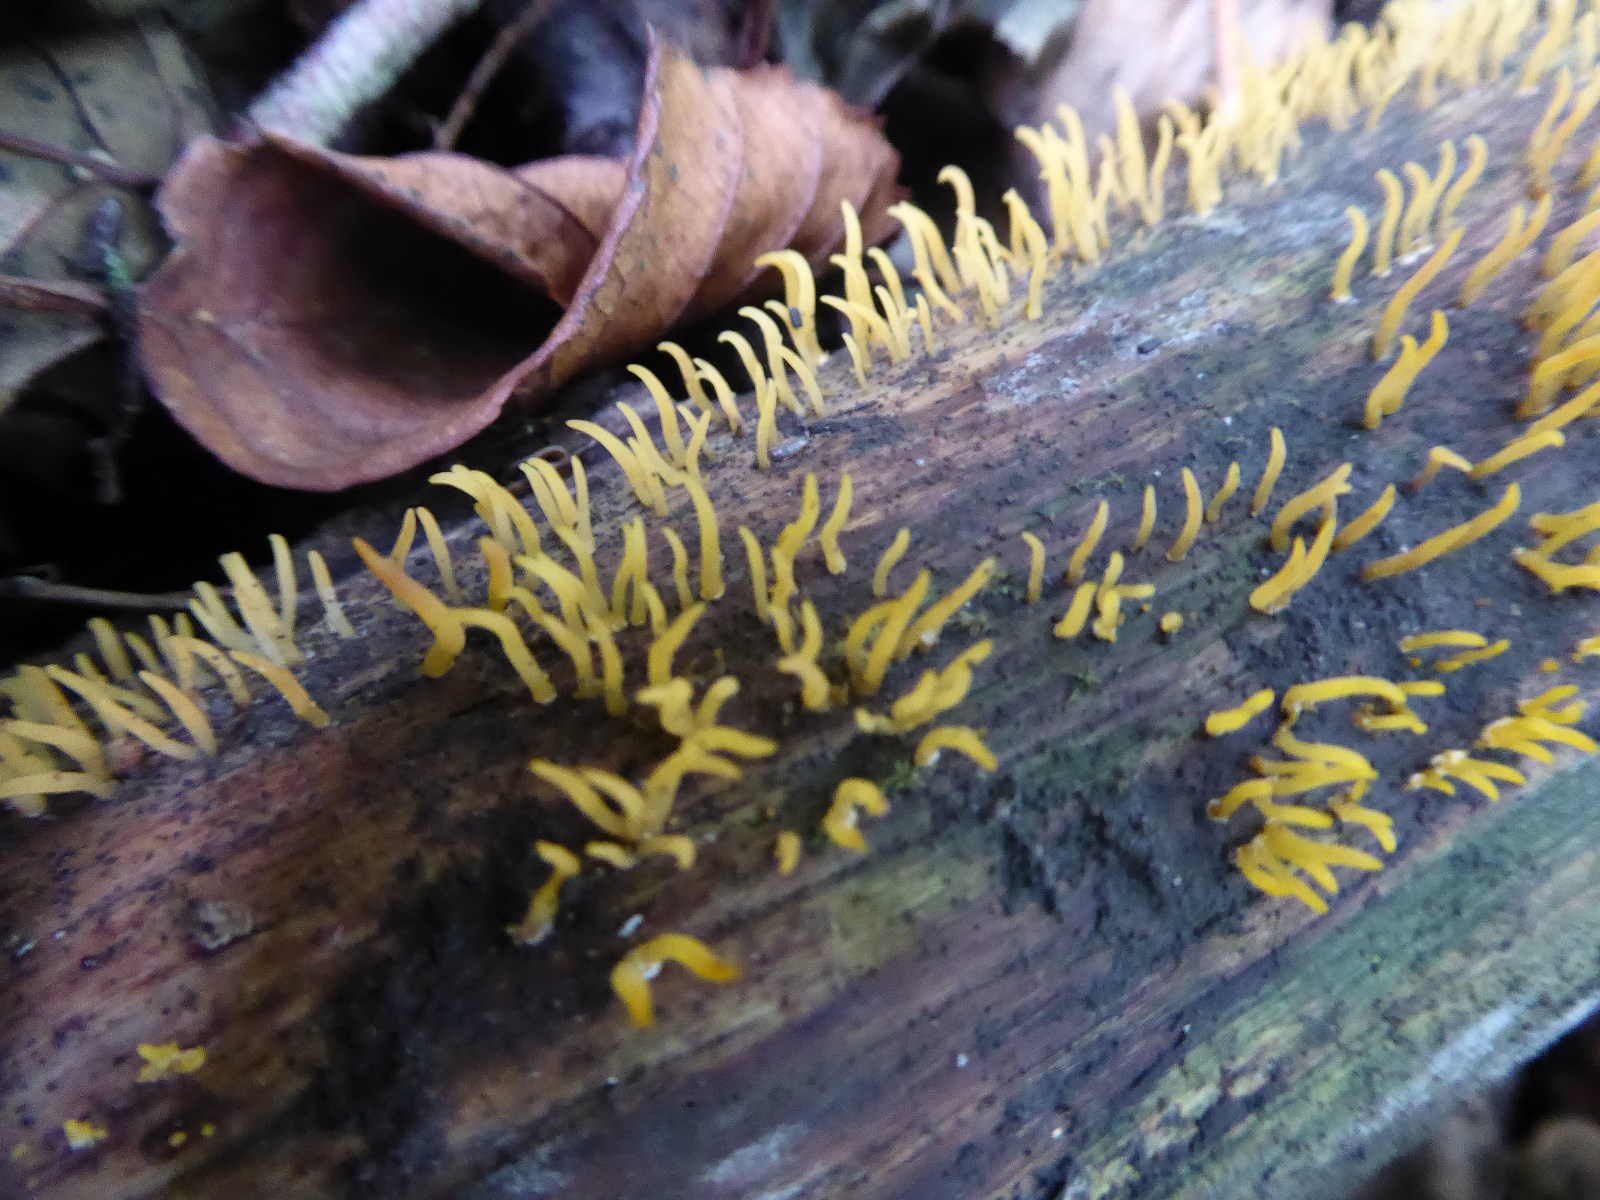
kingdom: Fungi
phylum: Basidiomycota
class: Dacrymycetes
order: Dacrymycetales
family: Dacrymycetaceae
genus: Calocera
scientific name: Calocera cornea
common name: liden guldgaffel
